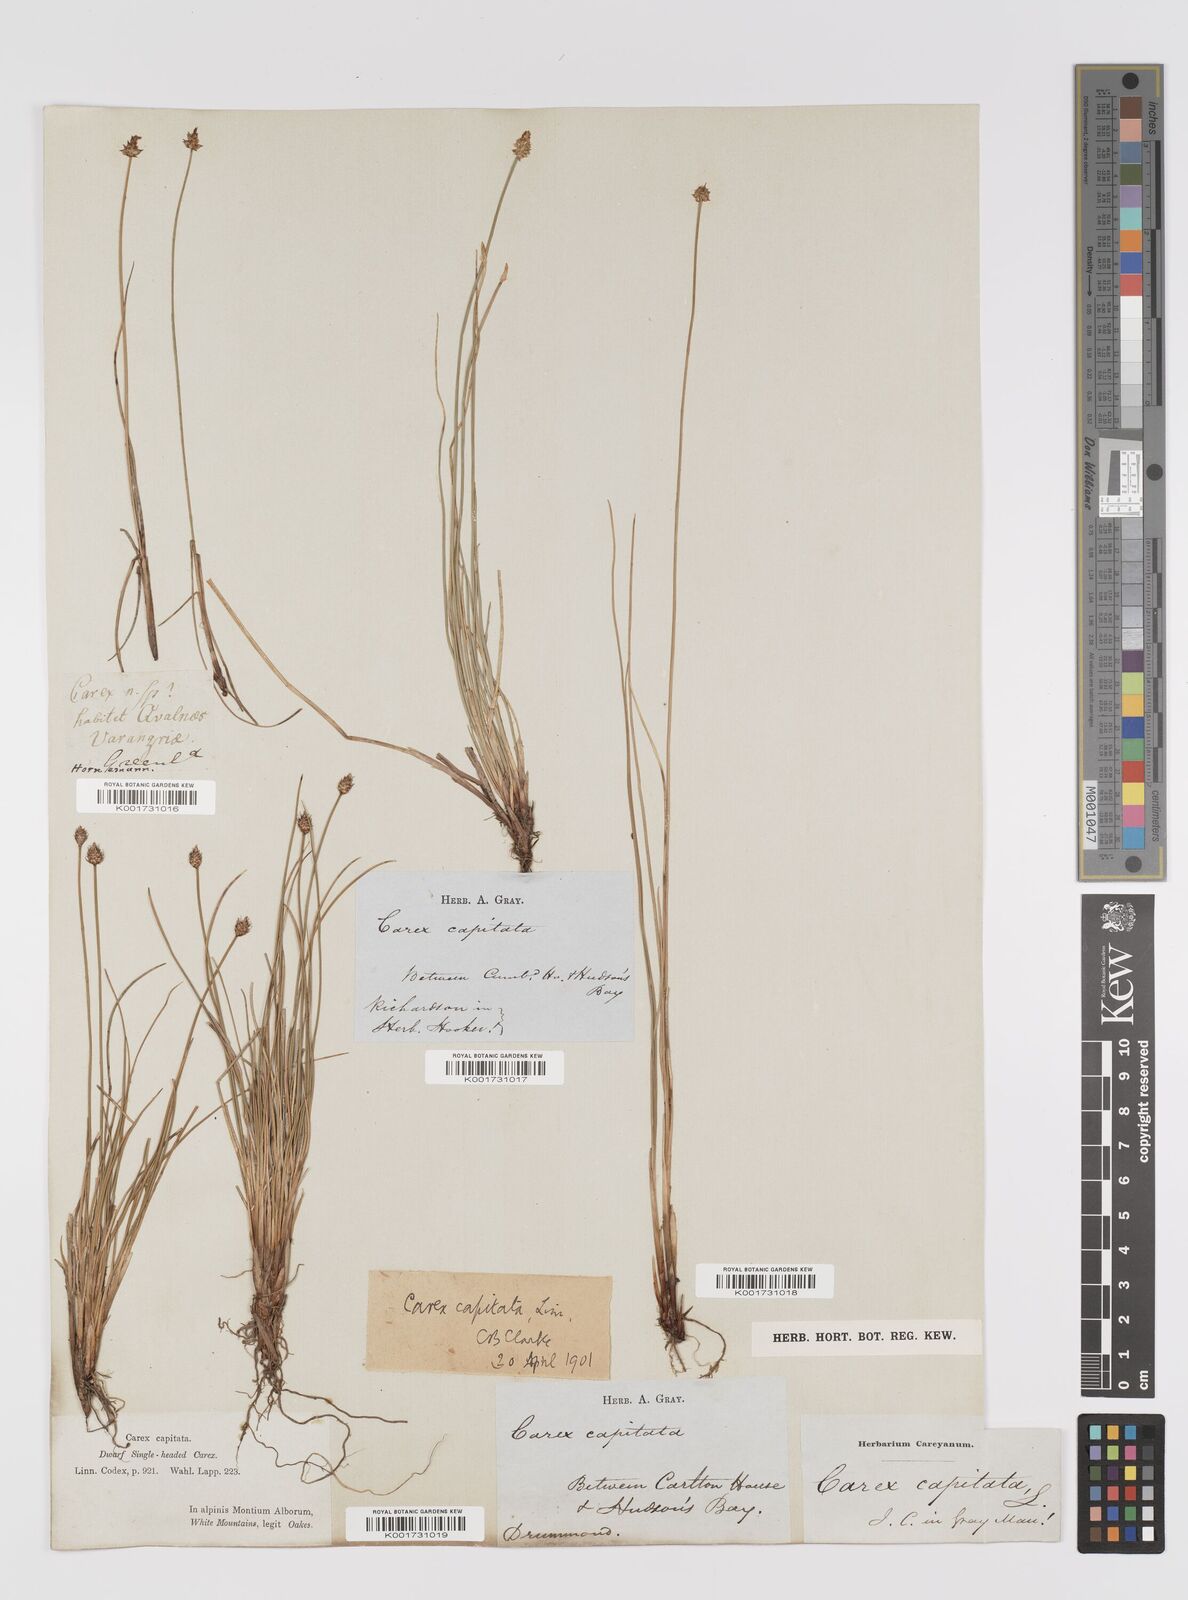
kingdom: Plantae
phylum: Tracheophyta
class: Liliopsida
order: Poales
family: Cyperaceae
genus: Carex
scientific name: Carex capitata
